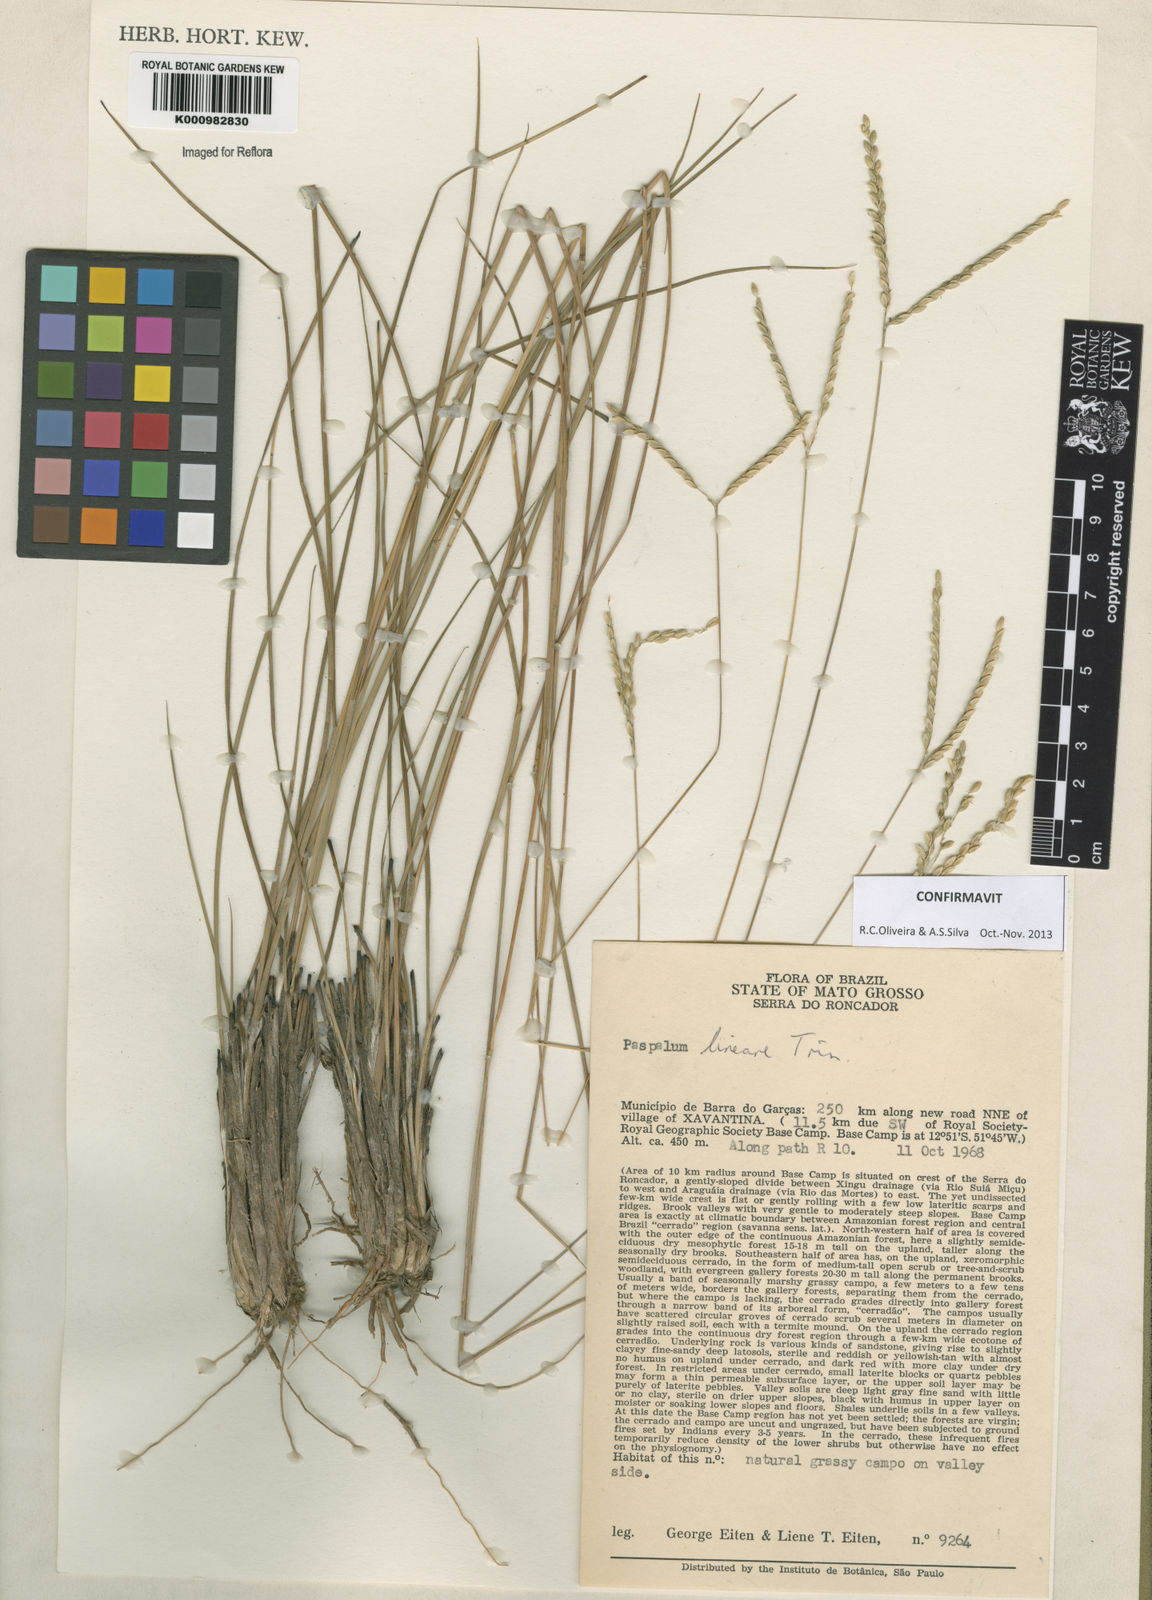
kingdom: Plantae
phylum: Tracheophyta
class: Liliopsida
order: Poales
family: Poaceae
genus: Paspalum
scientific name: Paspalum lineare
